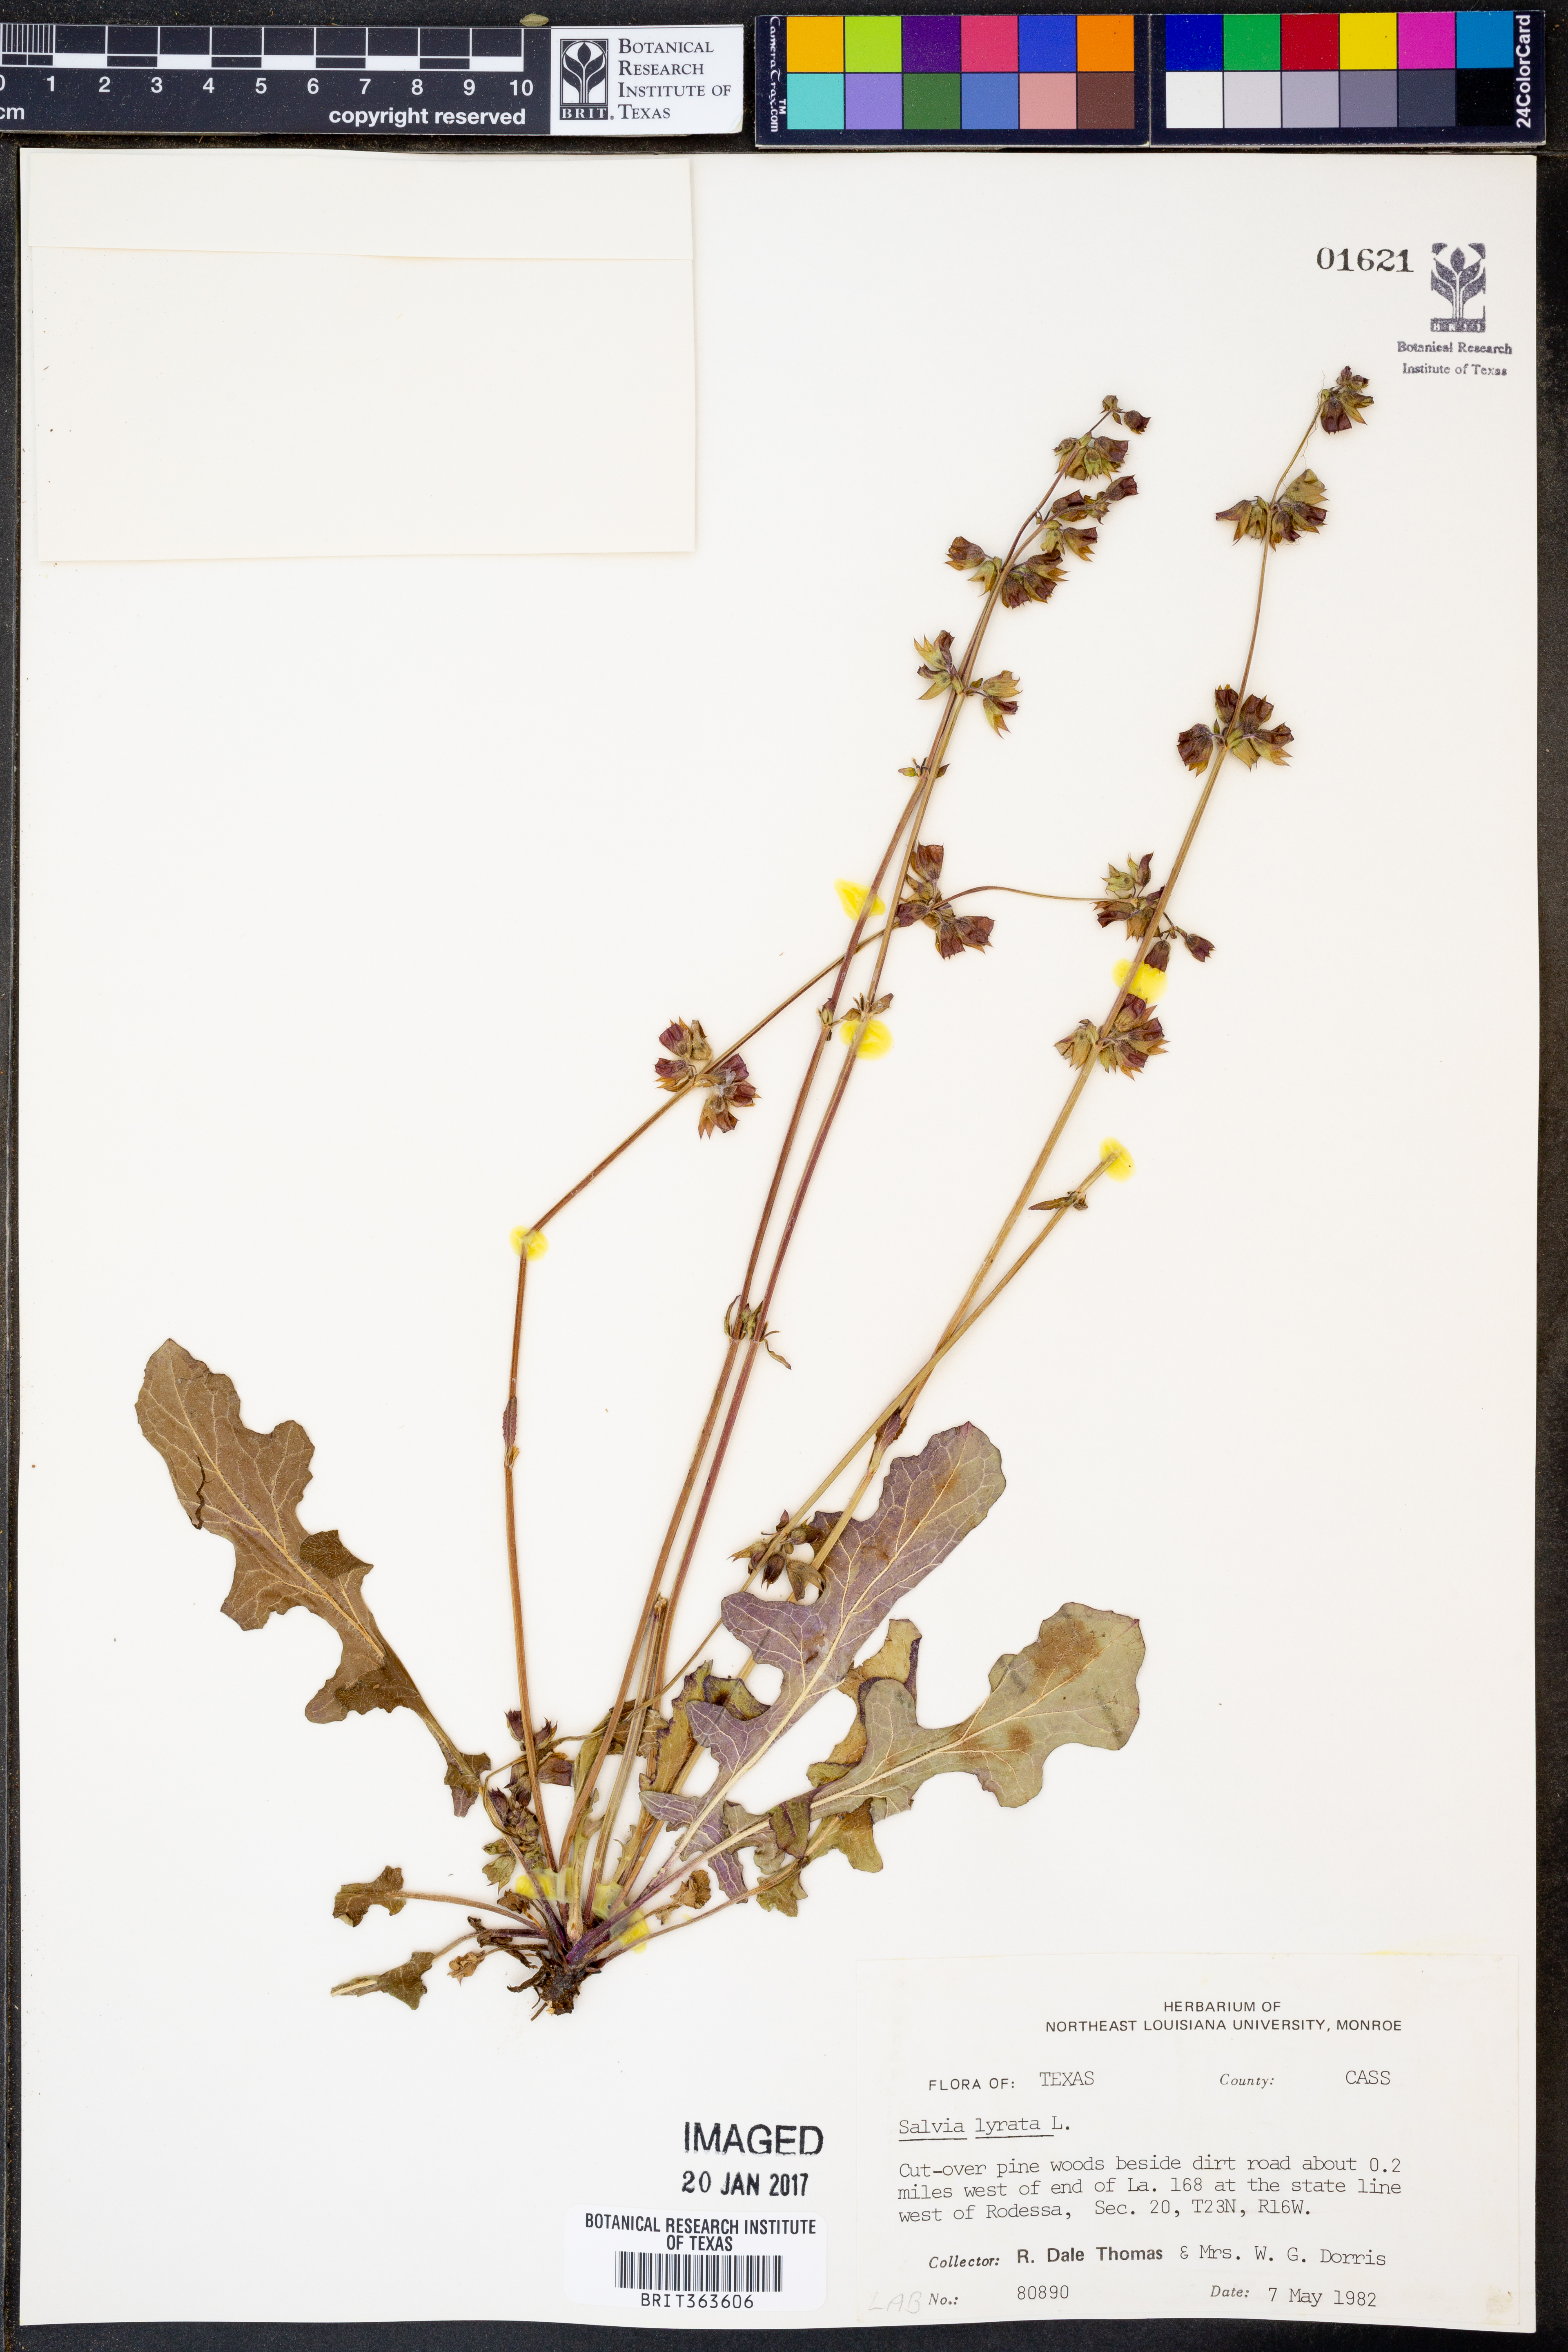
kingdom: Plantae
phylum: Tracheophyta
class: Magnoliopsida
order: Lamiales
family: Lamiaceae
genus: Salvia
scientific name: Salvia lyrata
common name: Cancerweed
